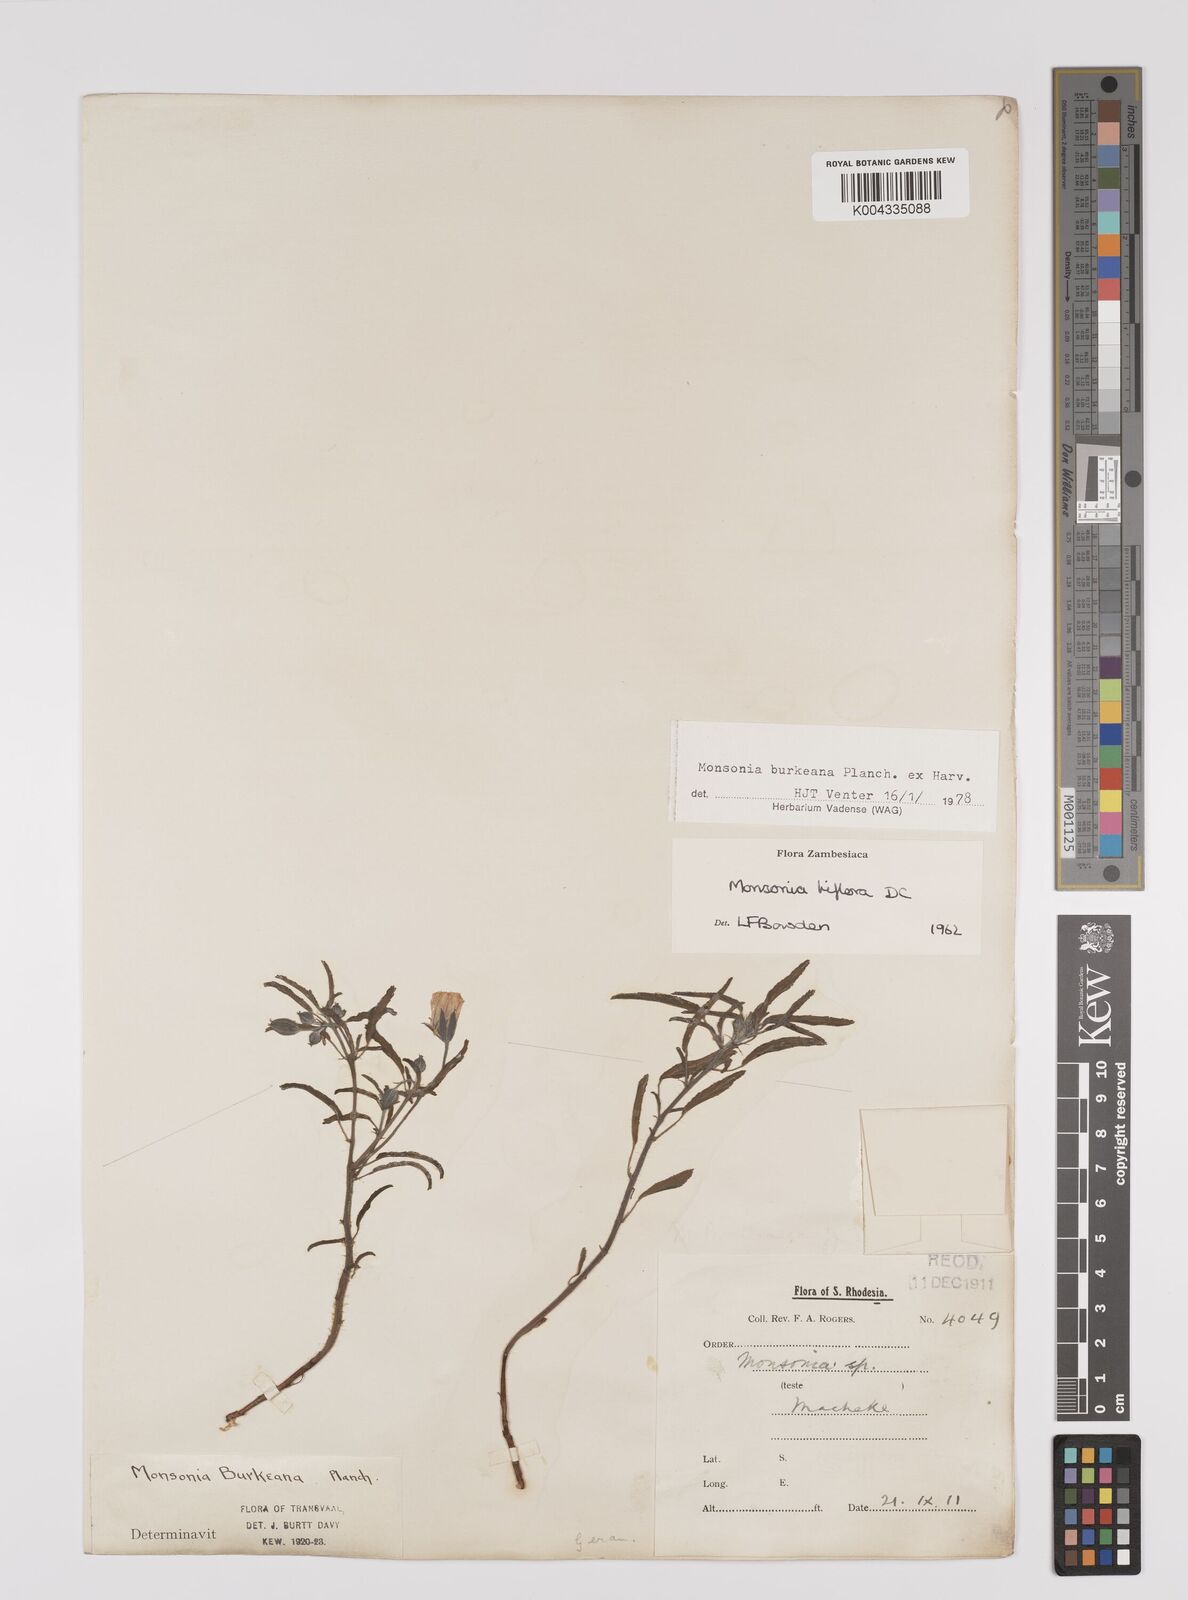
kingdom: Plantae
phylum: Tracheophyta
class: Magnoliopsida
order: Geraniales
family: Geraniaceae
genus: Monsonia
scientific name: Monsonia biflora
